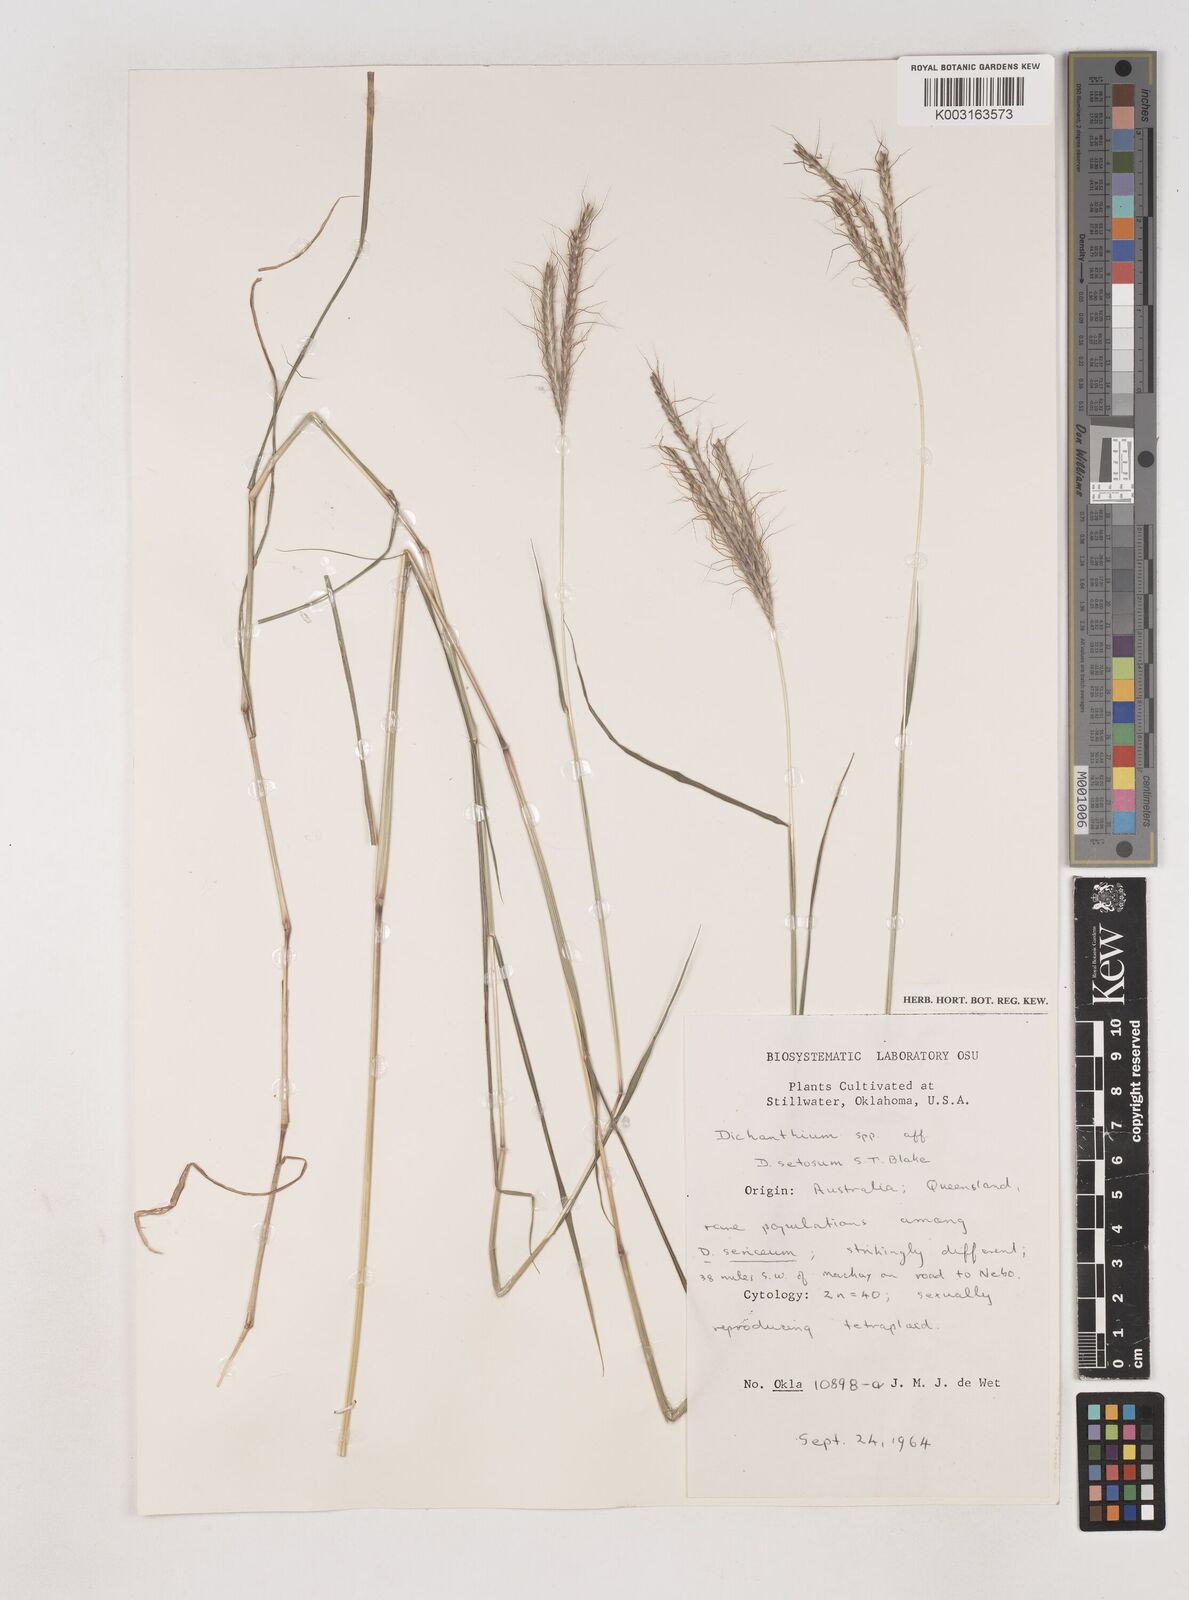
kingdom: Plantae
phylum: Tracheophyta
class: Liliopsida
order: Poales
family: Poaceae
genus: Dichanthium
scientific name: Dichanthium
